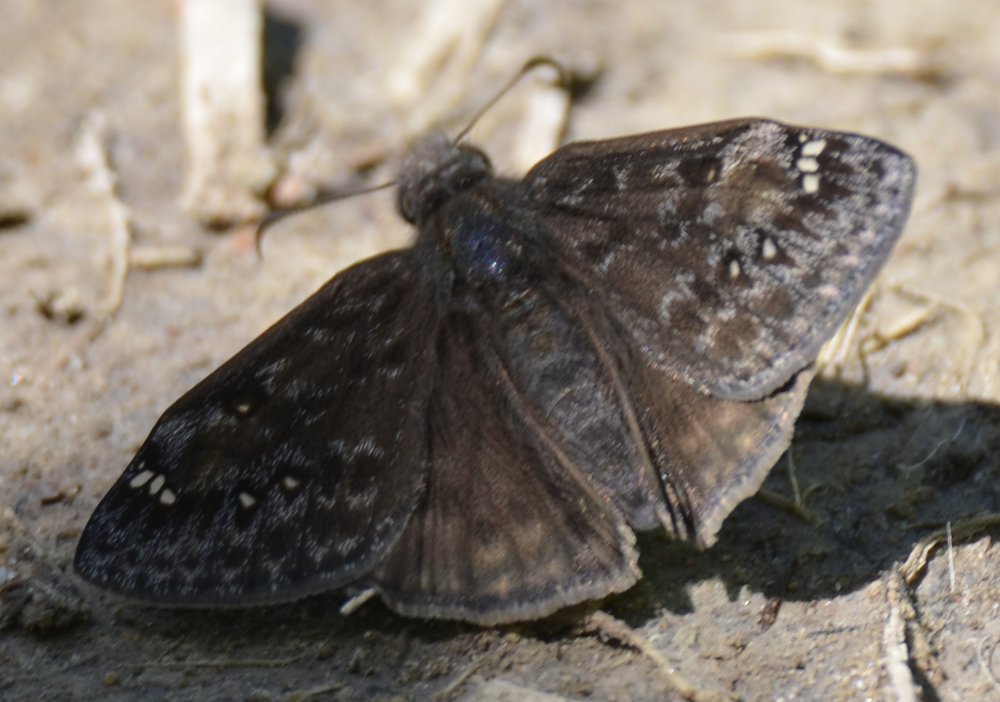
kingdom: Animalia
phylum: Arthropoda
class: Insecta
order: Lepidoptera
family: Hesperiidae
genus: Erynnis
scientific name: Erynnis
